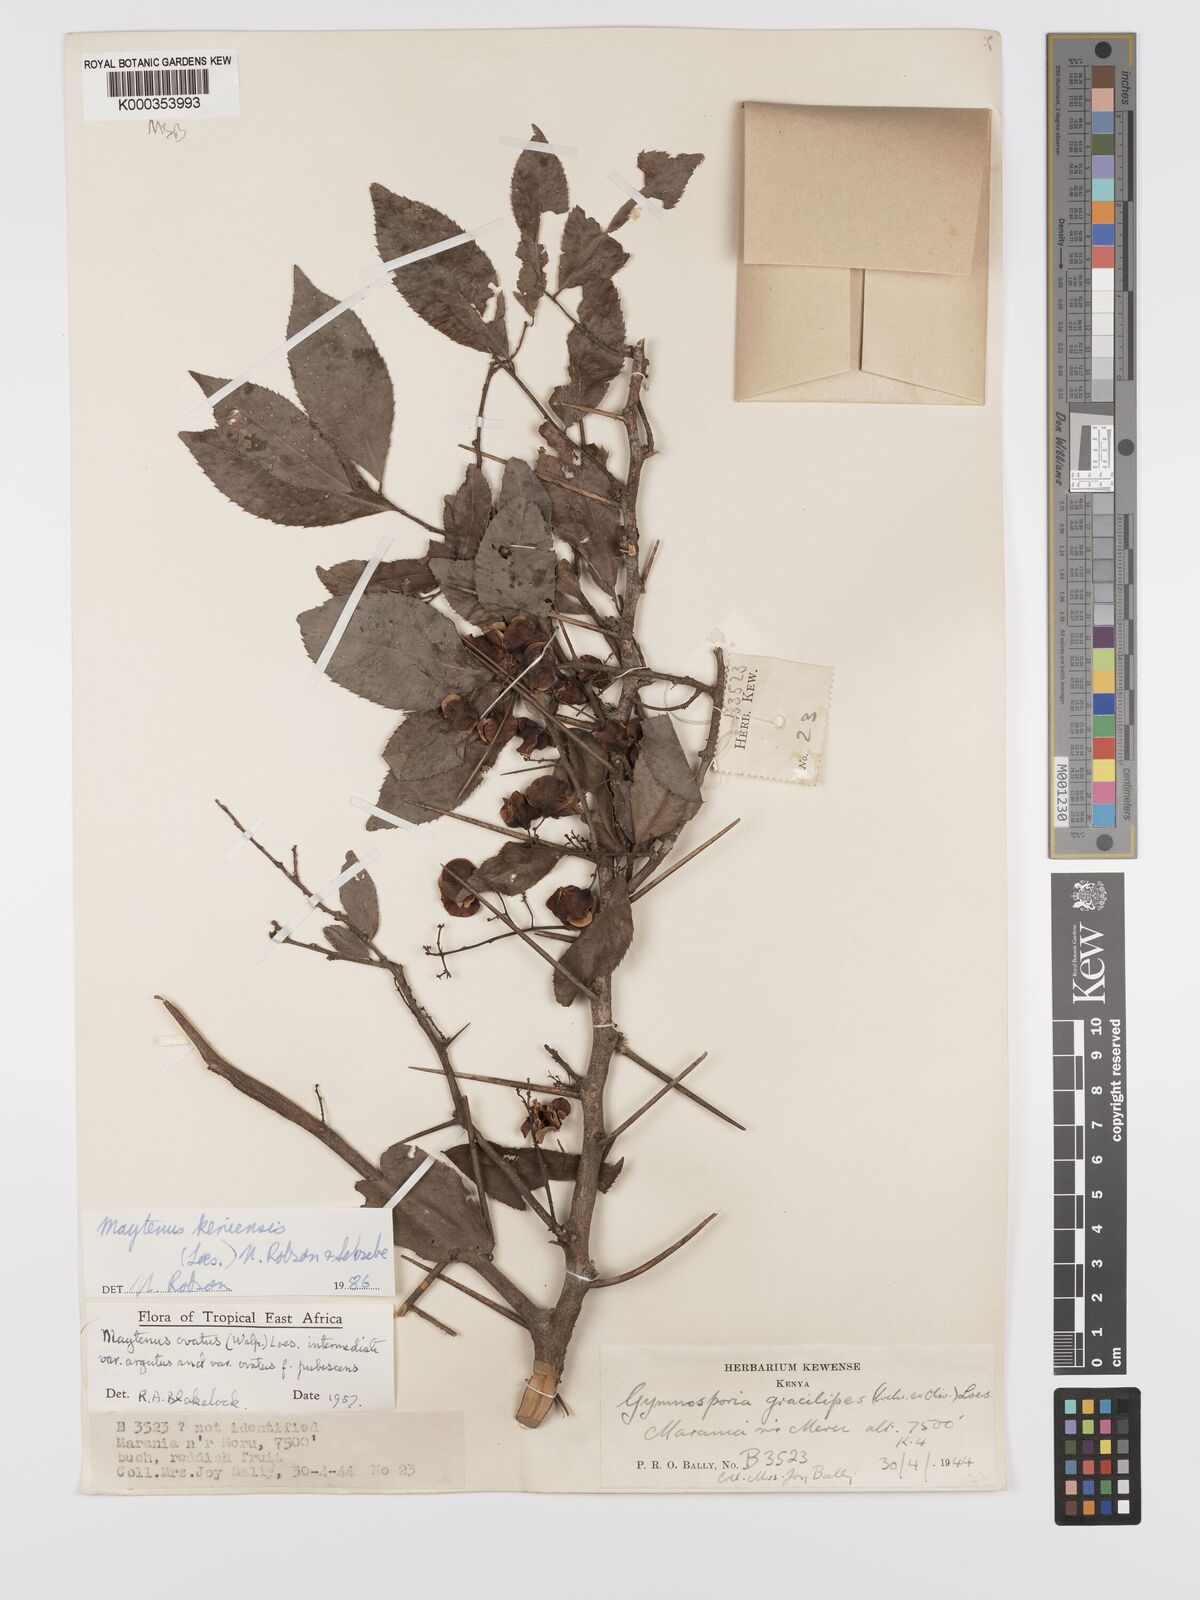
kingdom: Plantae
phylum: Tracheophyta
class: Magnoliopsida
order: Celastrales
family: Celastraceae
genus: Gymnosporia
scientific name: Gymnosporia keniensis
